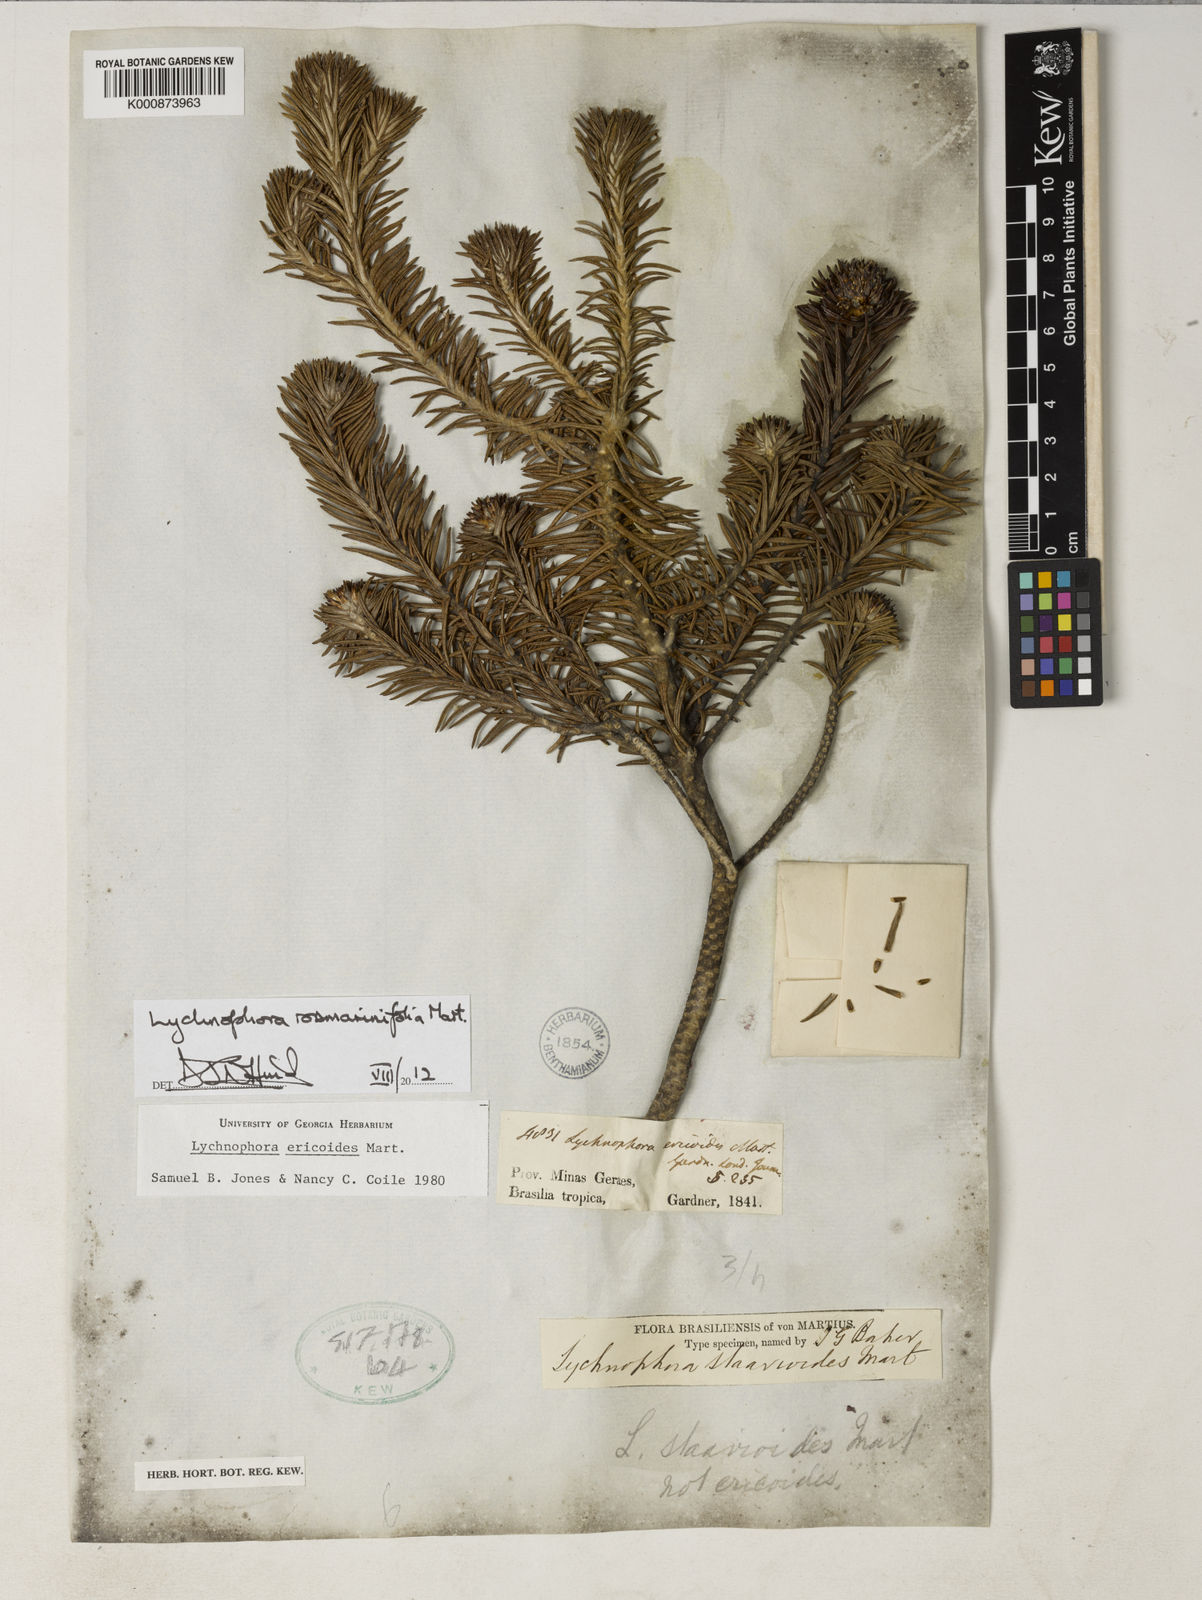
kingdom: Plantae
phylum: Tracheophyta
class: Magnoliopsida
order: Asterales
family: Asteraceae
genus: Lychnophora
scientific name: Lychnophora rosmarinifolia
